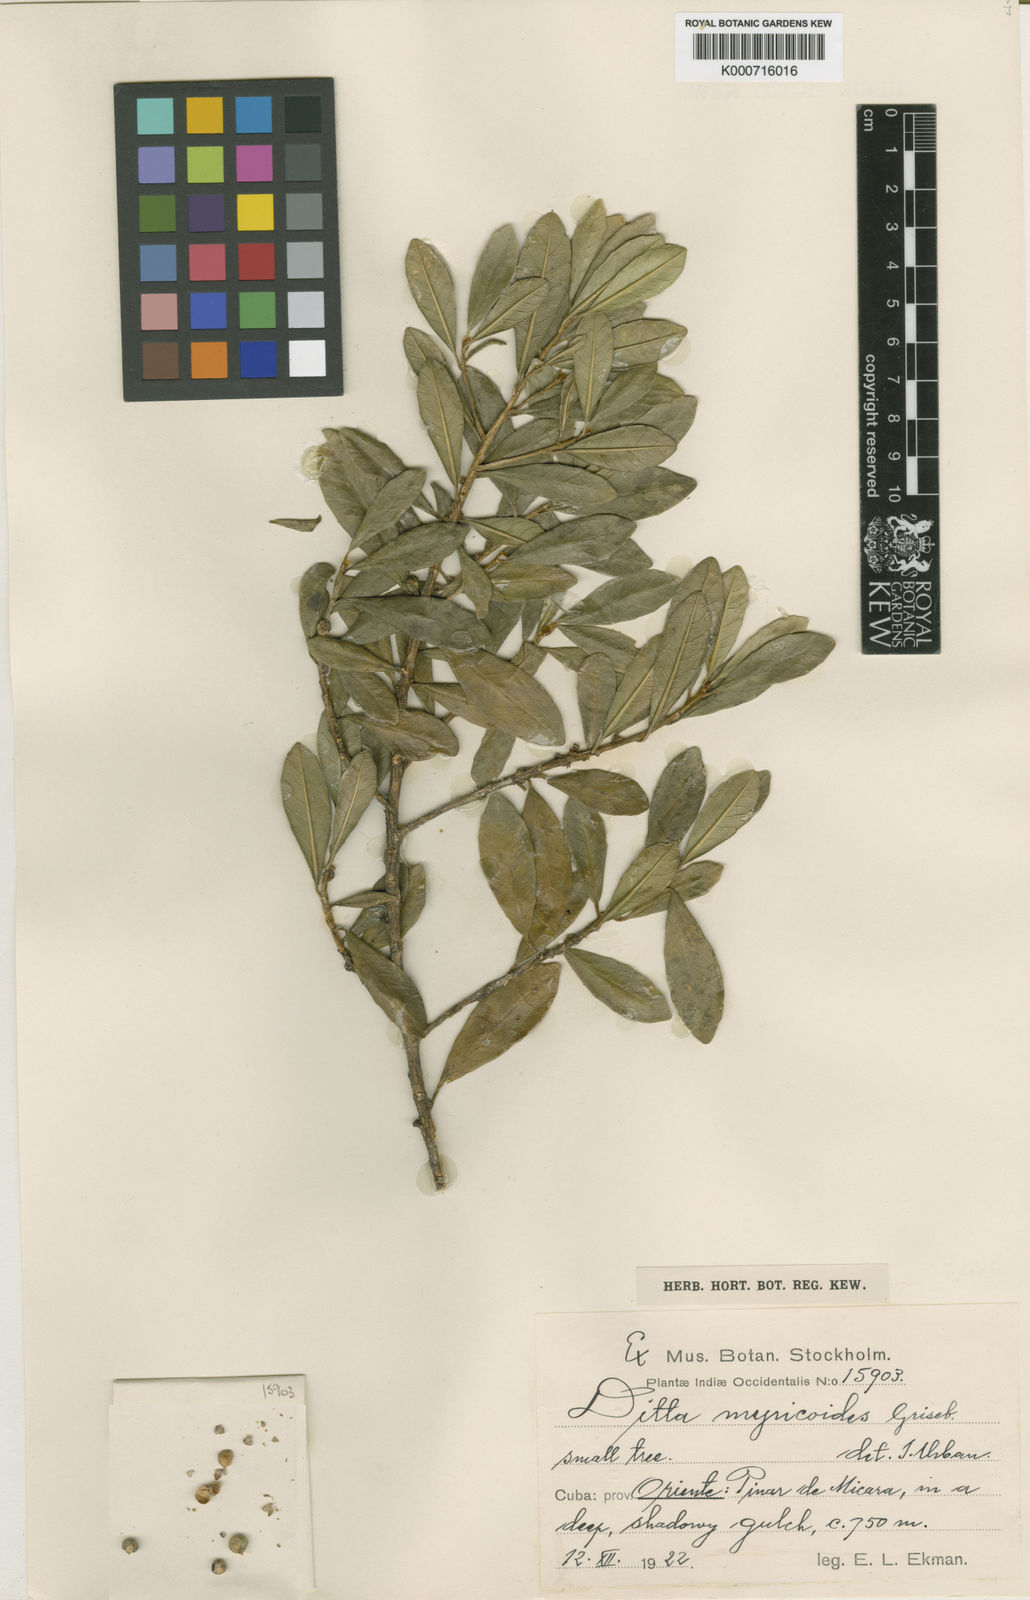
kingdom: Plantae
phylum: Tracheophyta
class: Magnoliopsida
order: Malpighiales
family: Euphorbiaceae
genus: Ditta
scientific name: Ditta myricoides
